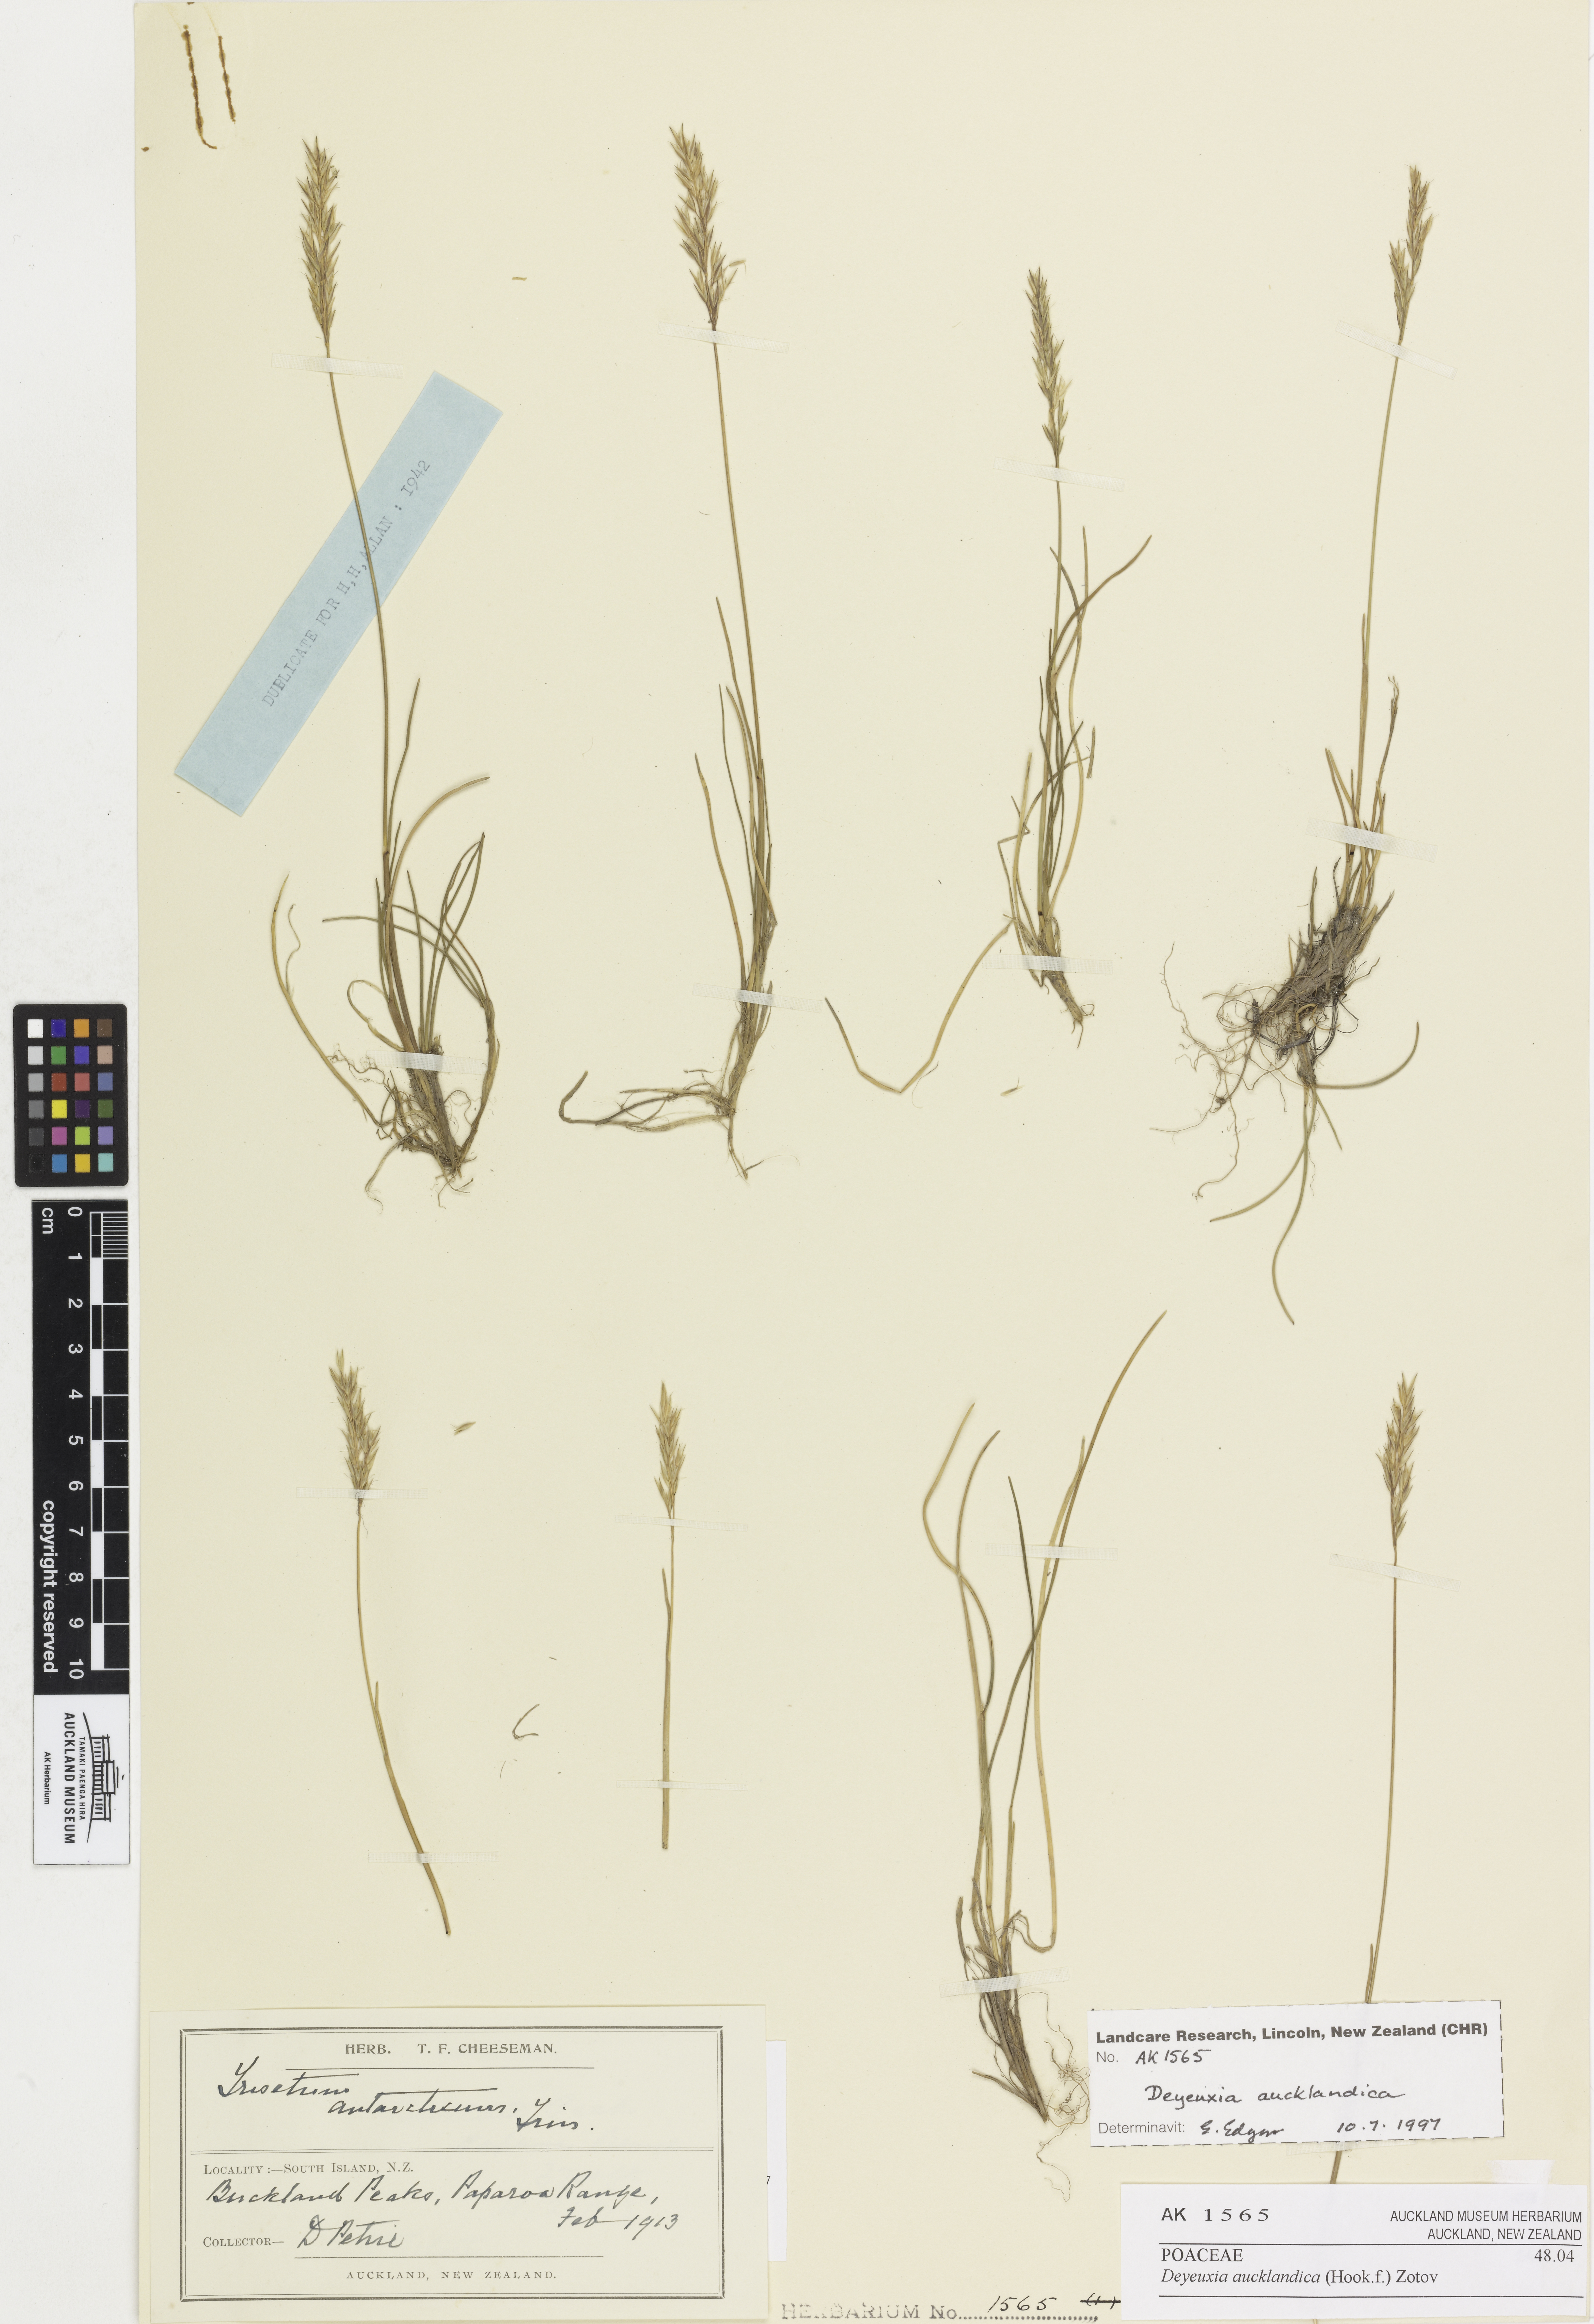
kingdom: Plantae
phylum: Tracheophyta
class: Liliopsida
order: Poales
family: Poaceae
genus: Agrostis
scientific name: Agrostis aucklandica
